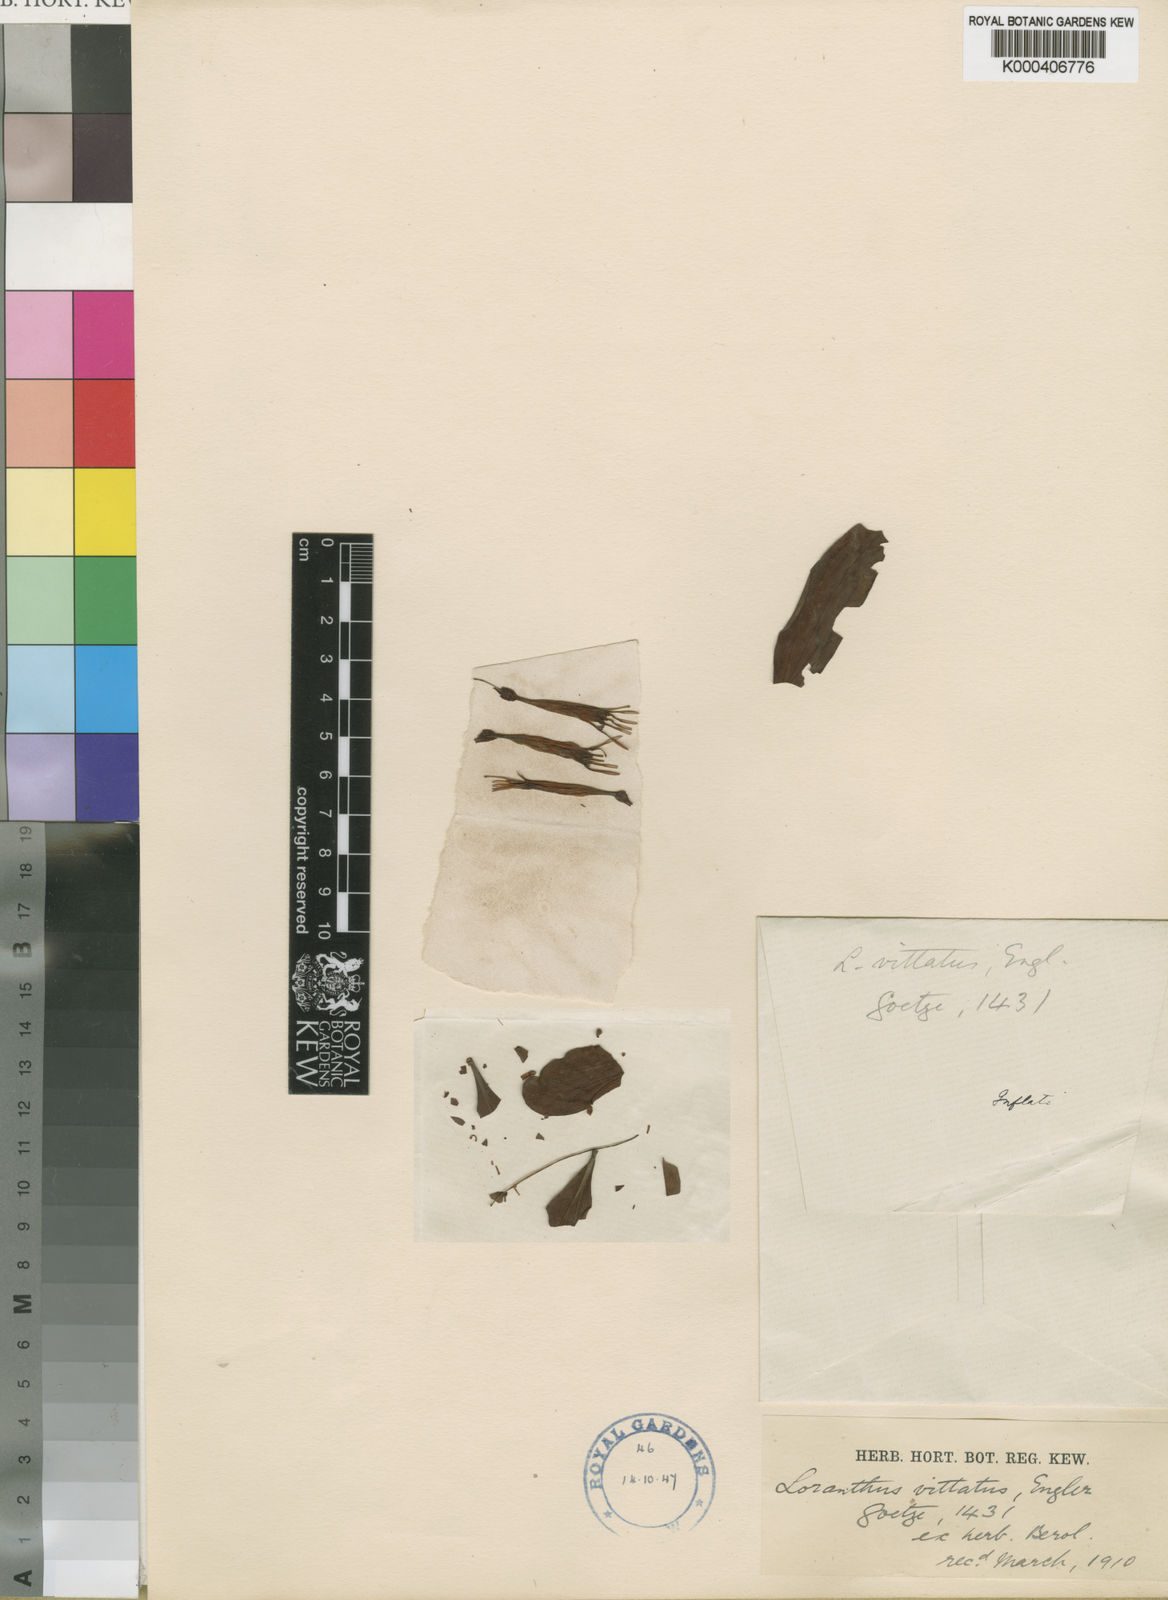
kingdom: Plantae
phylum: Tracheophyta
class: Magnoliopsida
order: Santalales
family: Loranthaceae
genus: Agelanthus
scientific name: Agelanthus zizyphifolius
